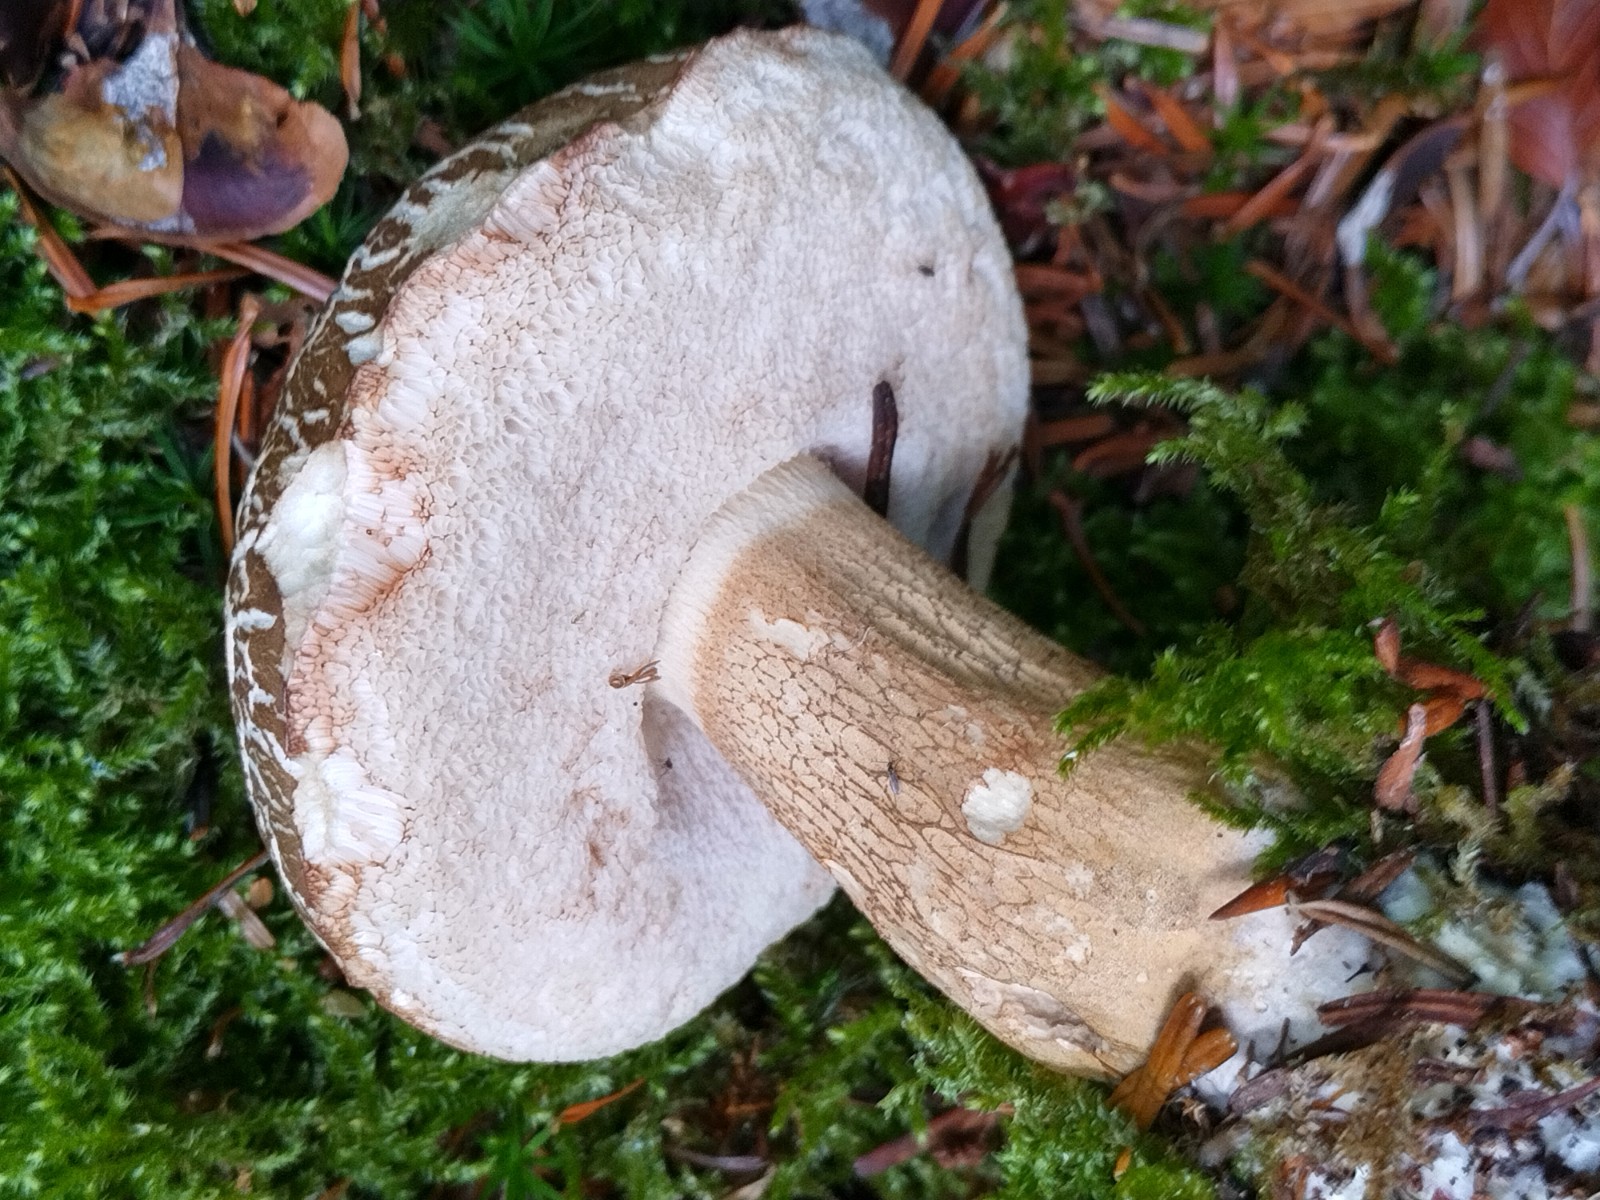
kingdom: Fungi
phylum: Basidiomycota
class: Agaricomycetes
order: Boletales
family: Boletaceae
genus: Tylopilus
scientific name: Tylopilus felleus
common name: galderørhat
